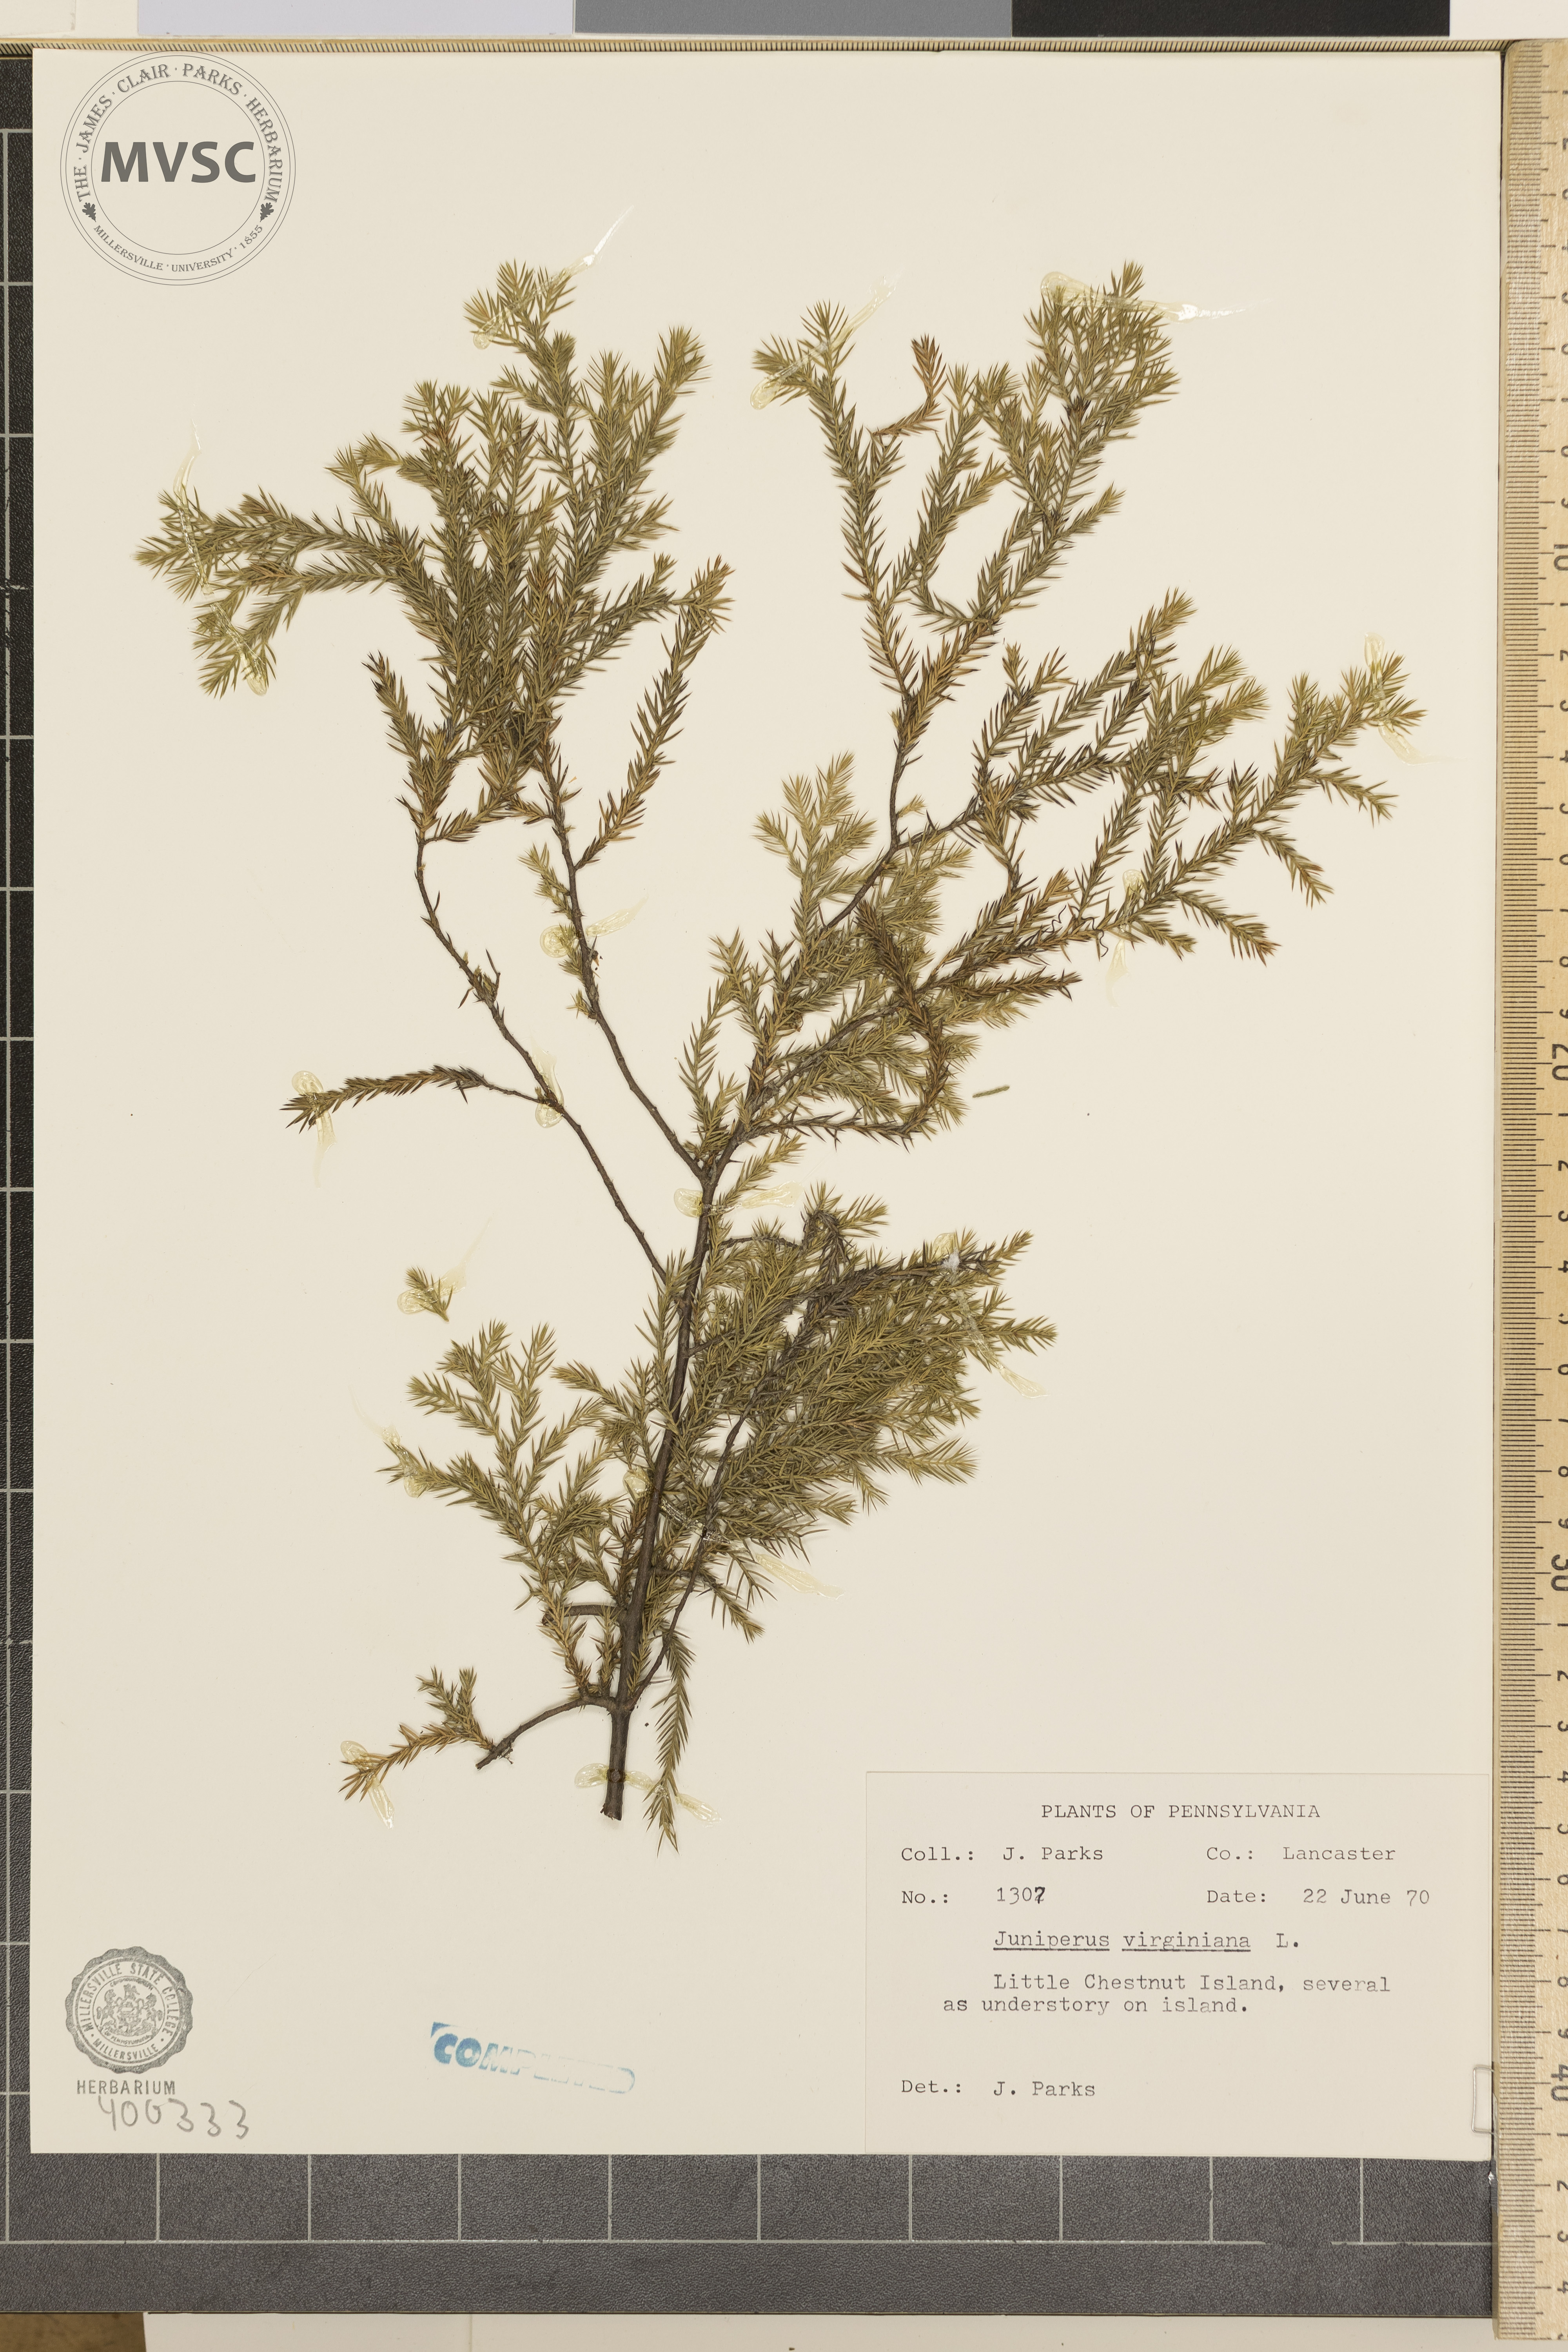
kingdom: Plantae
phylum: Tracheophyta
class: Pinopsida
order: Pinales
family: Cupressaceae
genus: Juniperus
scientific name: Juniperus virginiana
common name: Eastern red-cedar
